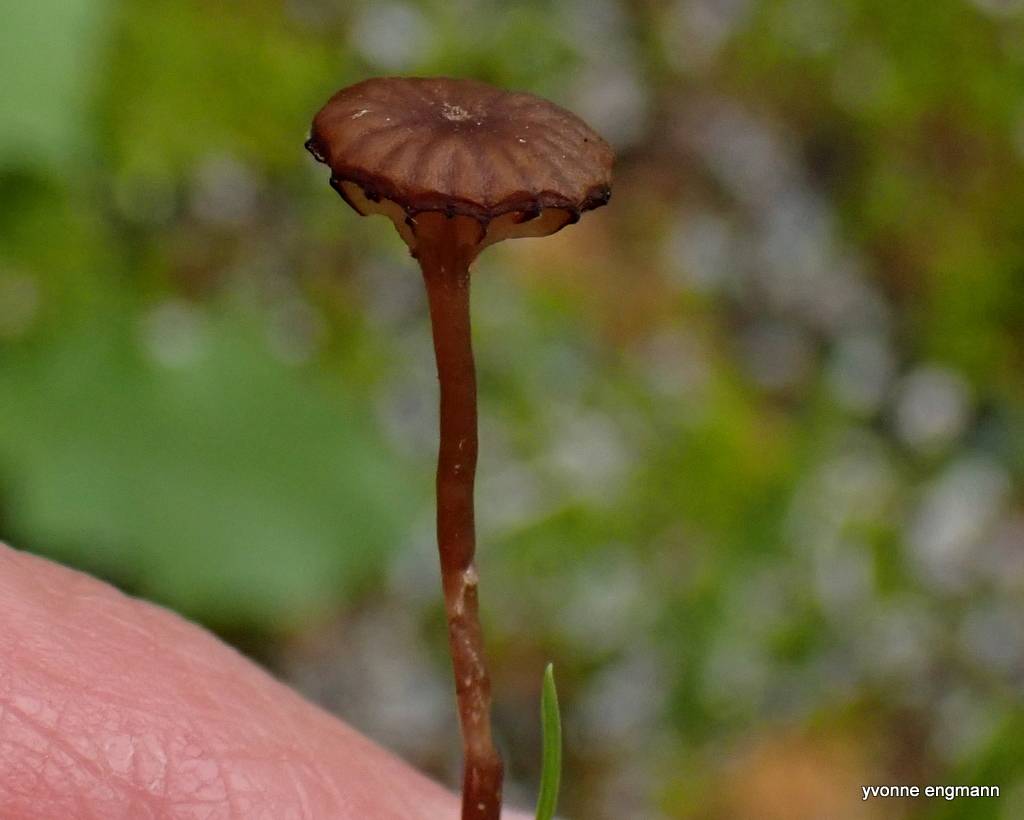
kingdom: Fungi
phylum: Basidiomycota
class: Agaricomycetes
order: Agaricales
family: Tricholomataceae
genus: Omphalina
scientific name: Omphalina
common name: navlehat
